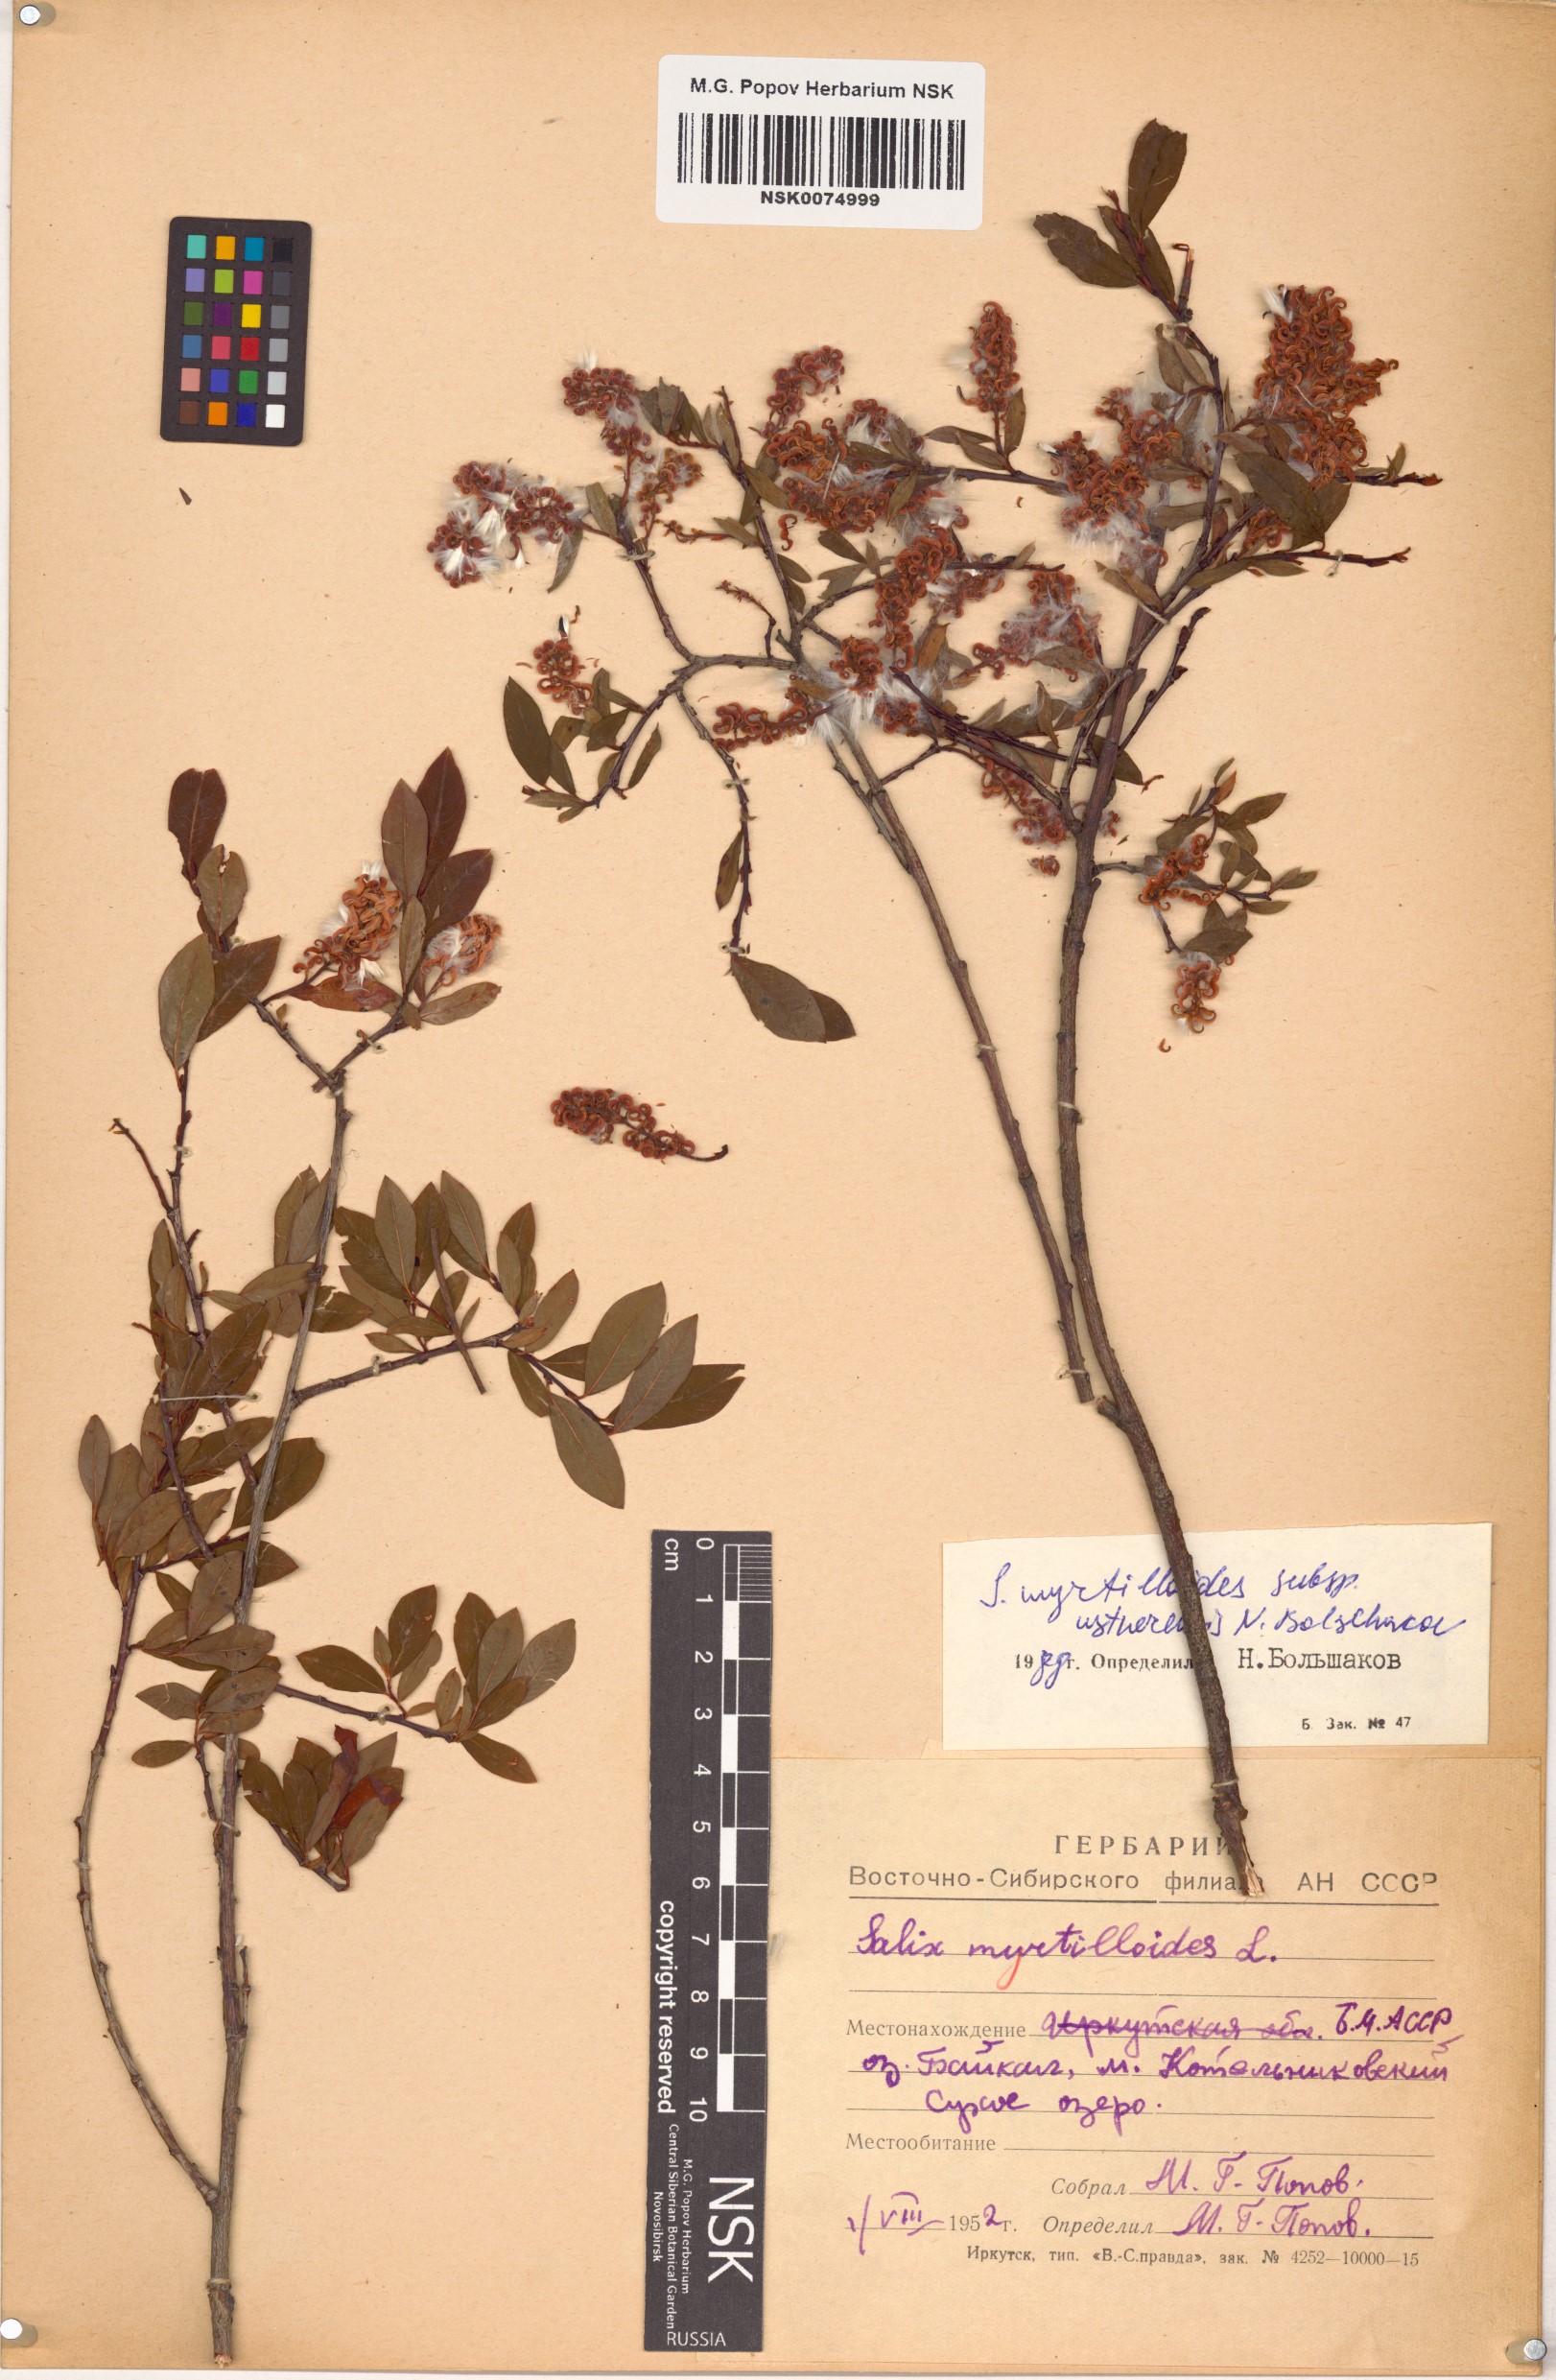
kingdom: Plantae
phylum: Tracheophyta
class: Magnoliopsida
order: Malpighiales
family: Salicaceae
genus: Salix
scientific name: Salix ustnerensis
